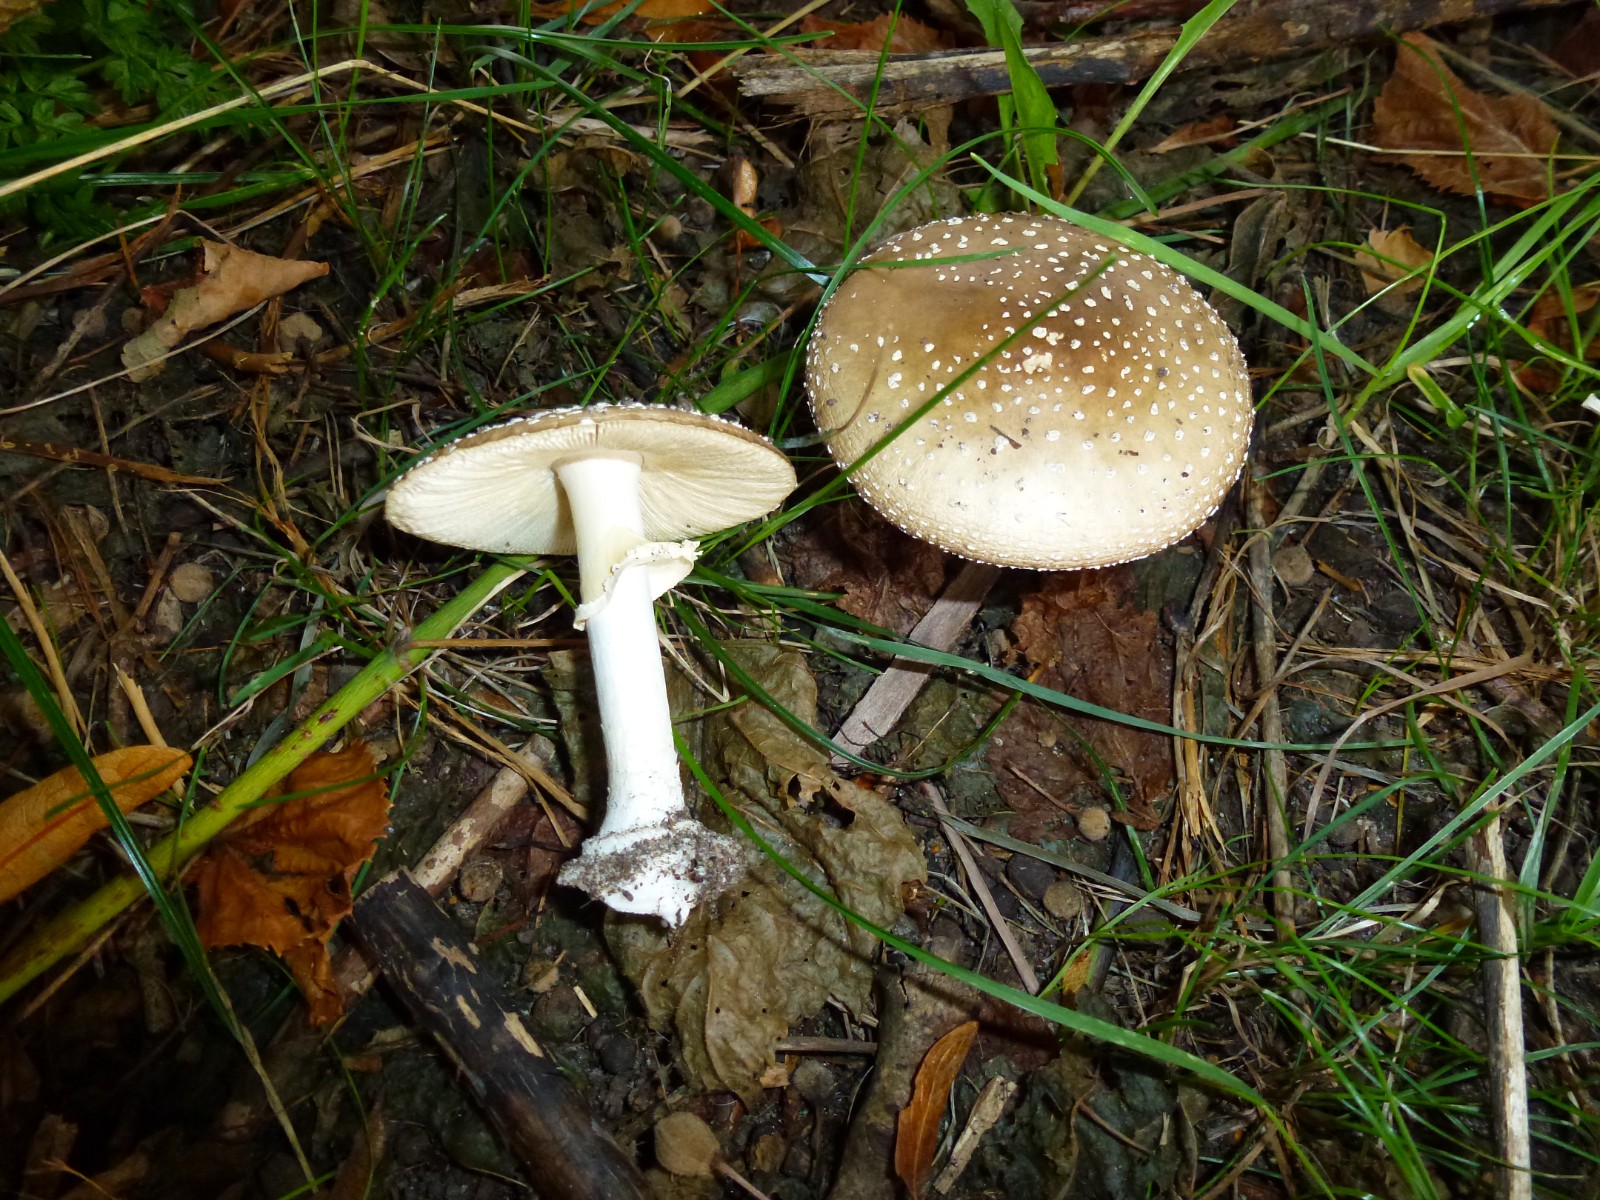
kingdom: Fungi
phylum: Basidiomycota
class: Agaricomycetes
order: Agaricales
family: Amanitaceae
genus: Amanita
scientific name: Amanita pantherina
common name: panter-fluesvamp
